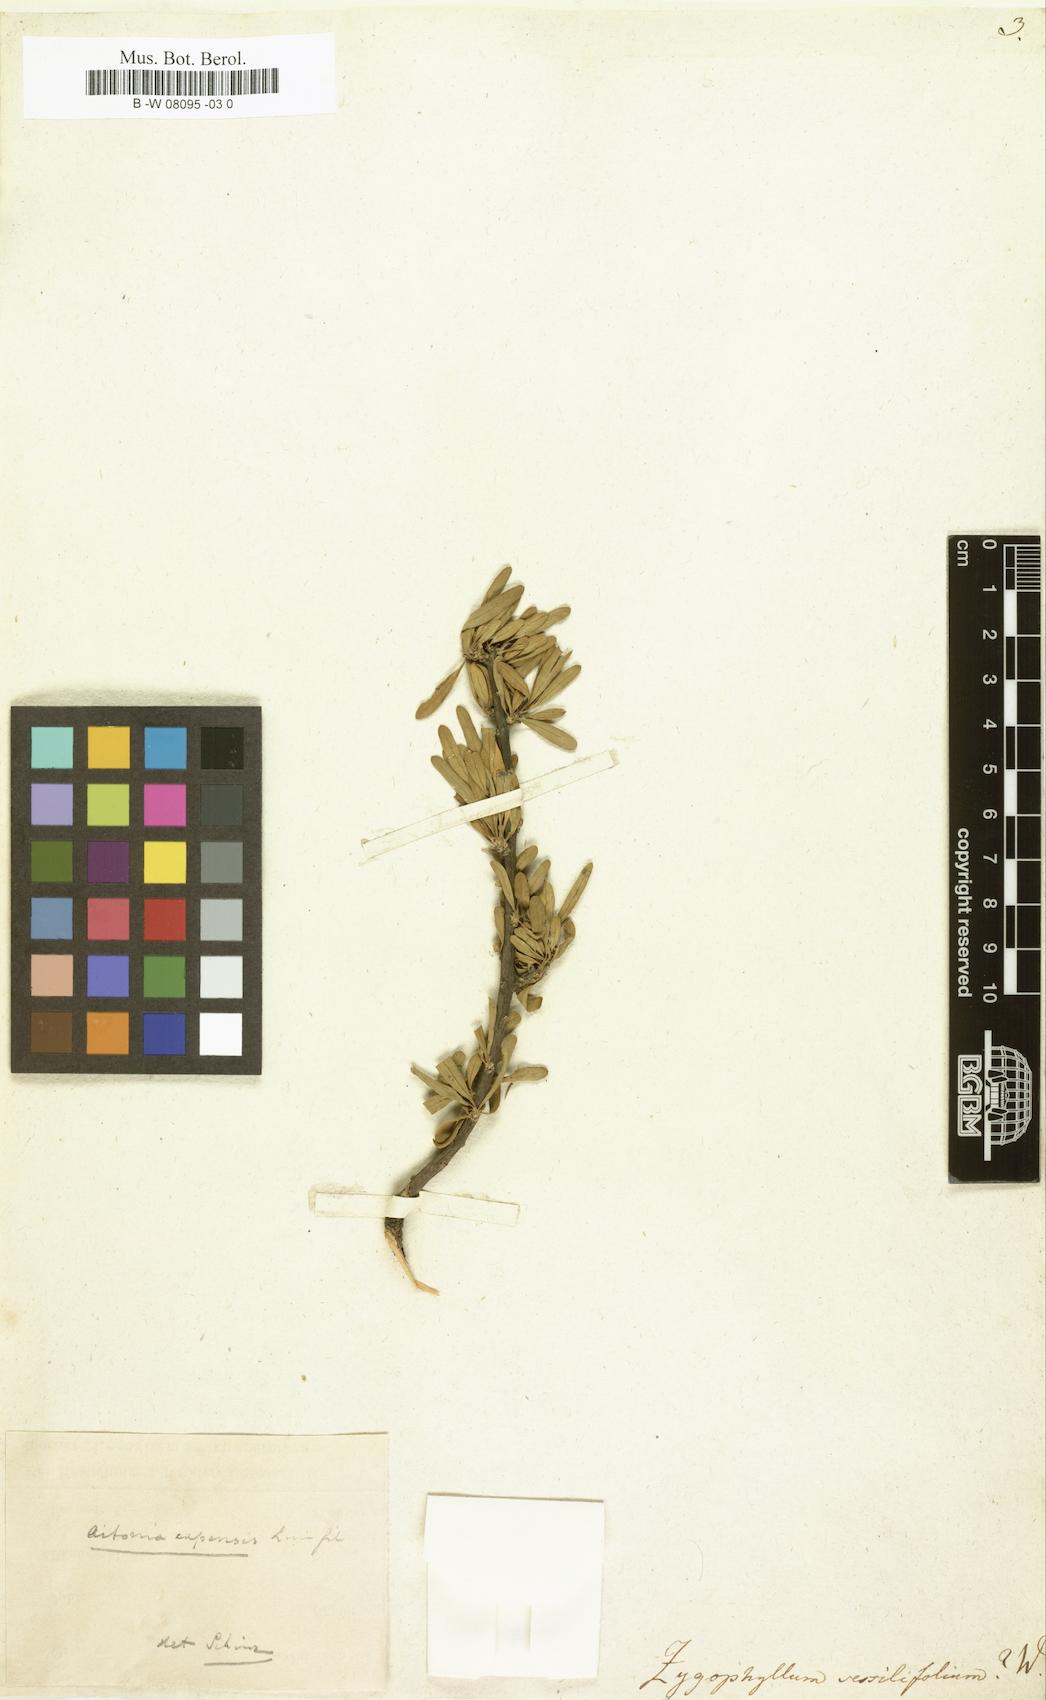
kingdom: Plantae
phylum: Tracheophyta
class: Magnoliopsida
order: Zygophyllales
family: Zygophyllaceae
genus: Roepera
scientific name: Roepera sessilifolia
